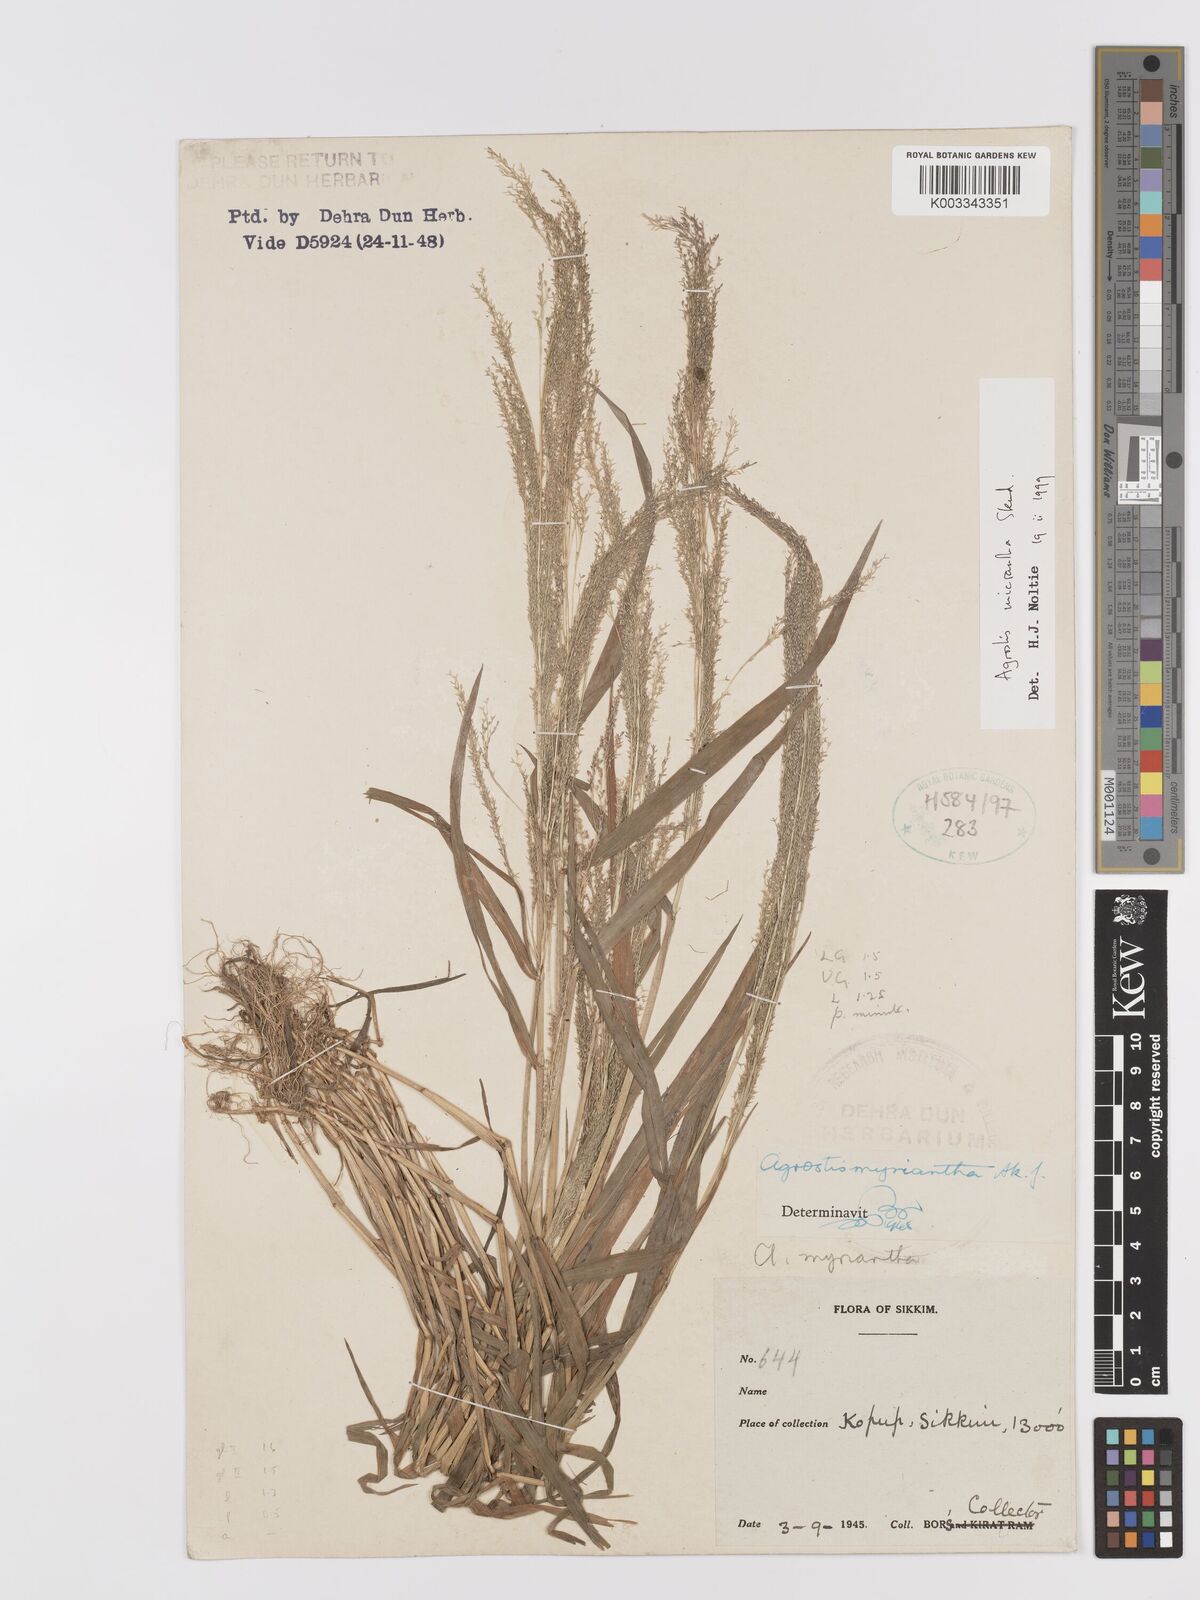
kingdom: Plantae
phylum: Tracheophyta
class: Liliopsida
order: Poales
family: Poaceae
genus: Agrostis
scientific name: Agrostis micrantha
